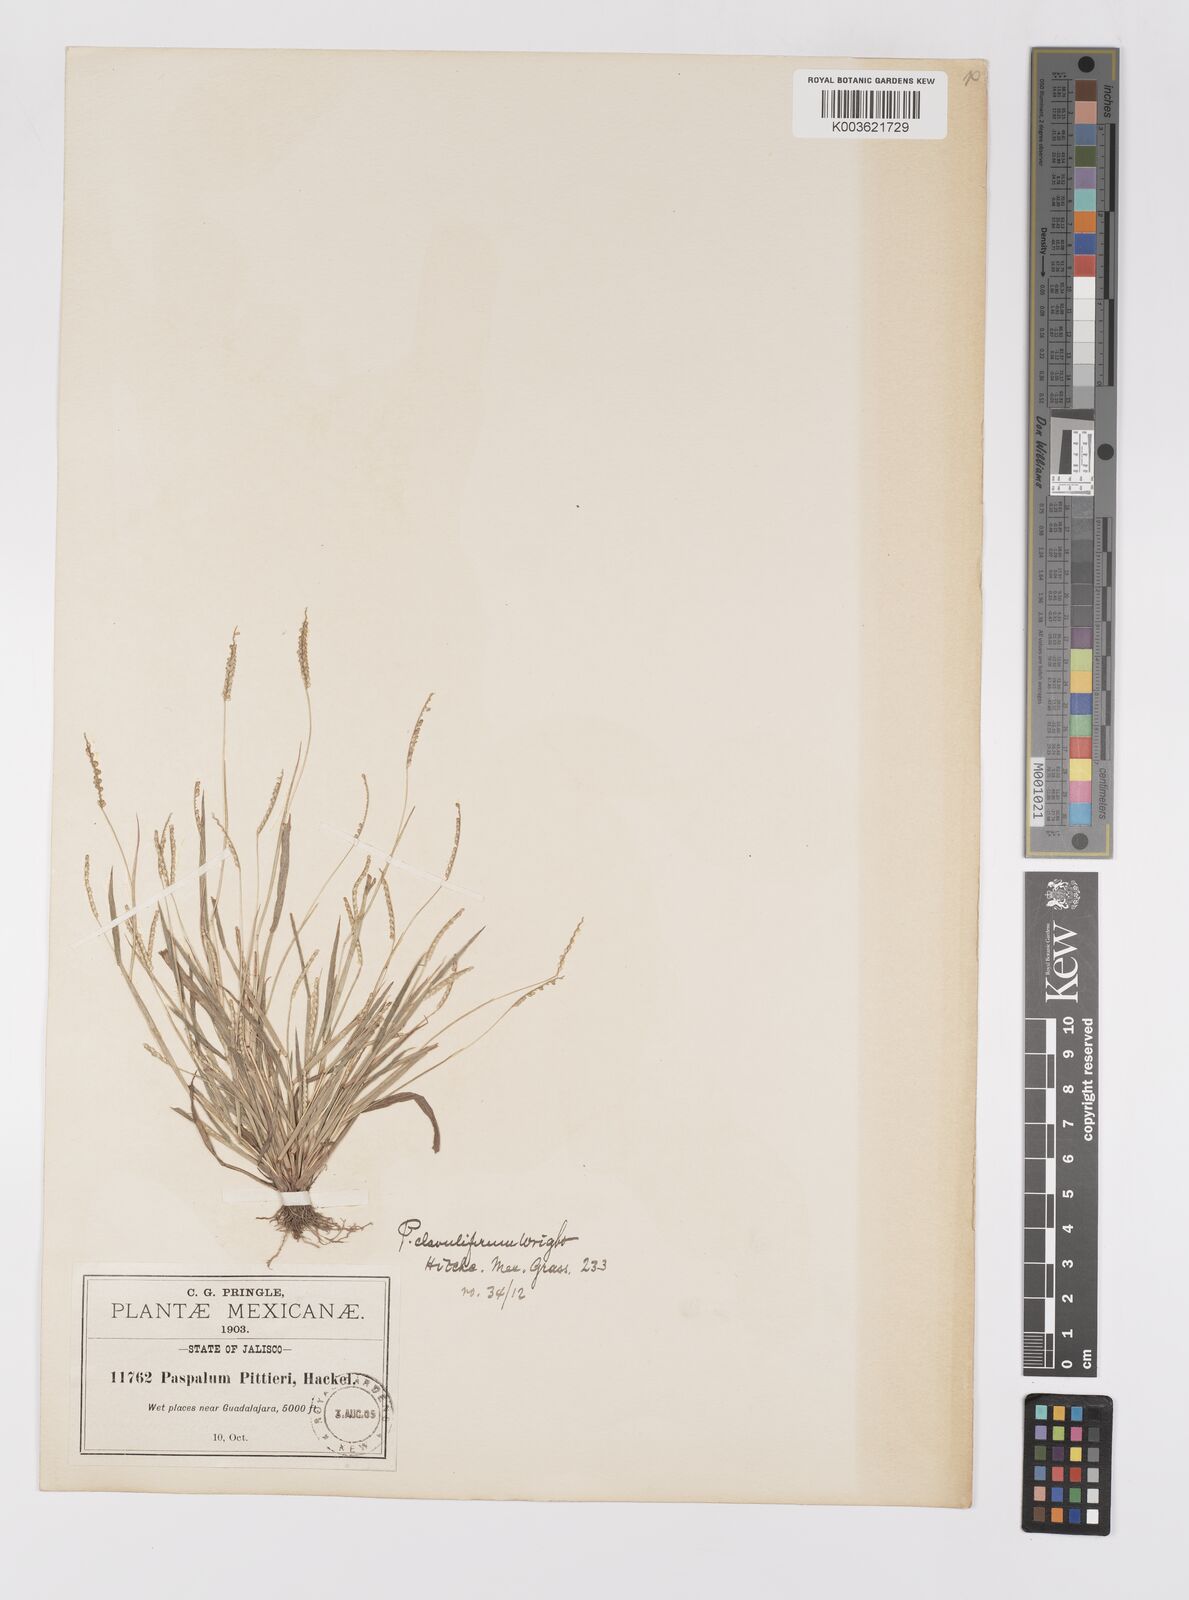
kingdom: Plantae
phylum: Tracheophyta
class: Liliopsida
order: Poales
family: Poaceae
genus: Paspalum
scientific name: Paspalum clavuliferum
